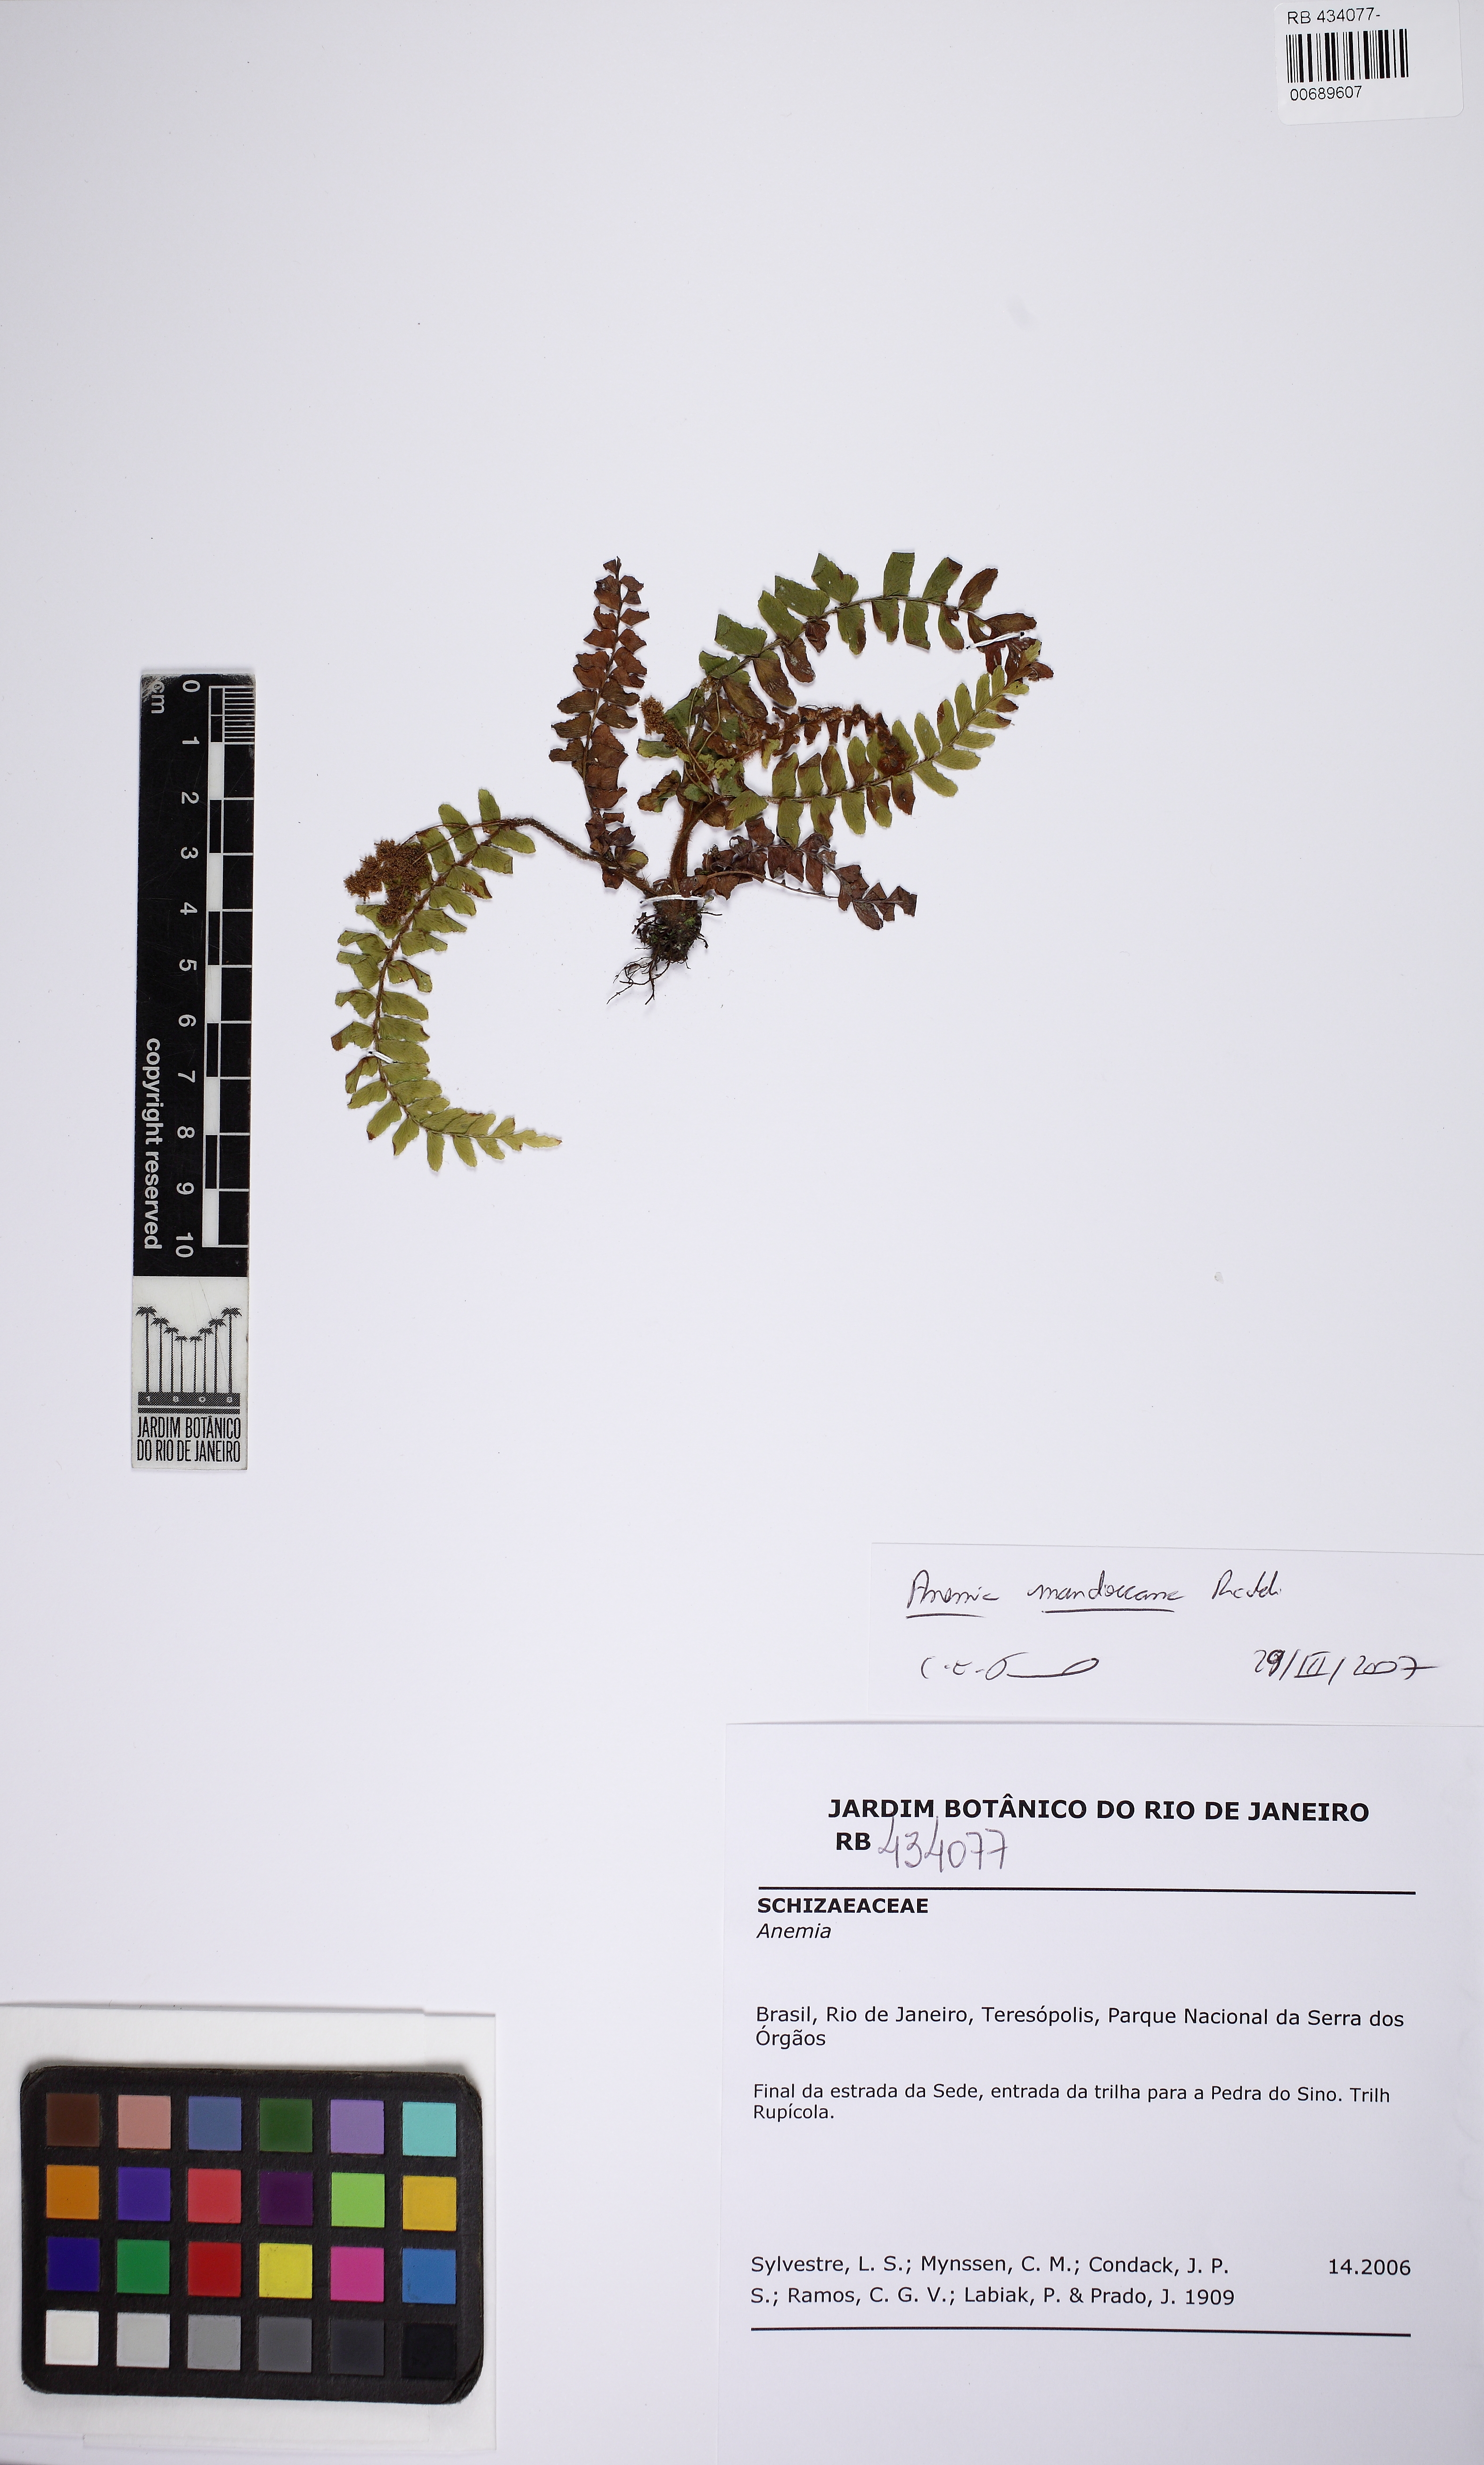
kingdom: Plantae
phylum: Tracheophyta
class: Polypodiopsida
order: Schizaeales
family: Anemiaceae
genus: Anemia
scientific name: Anemia mandiocana
